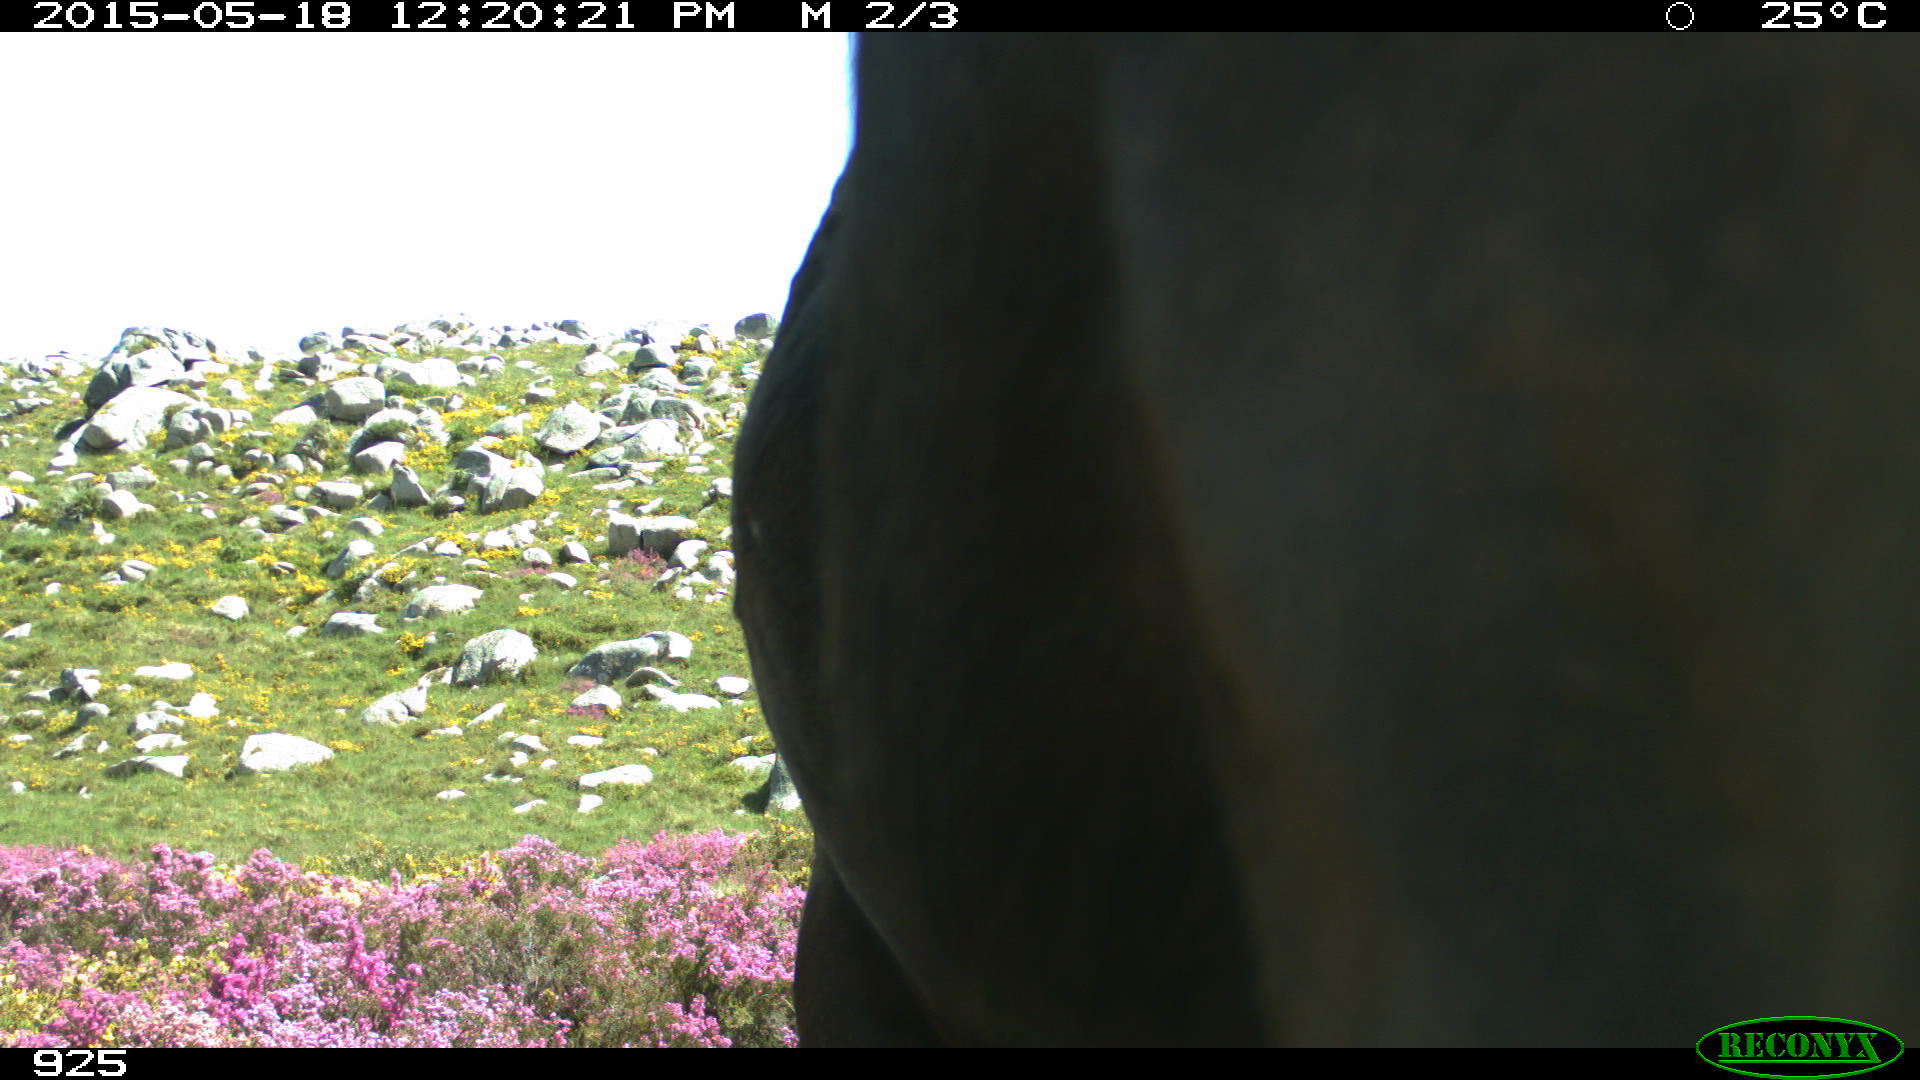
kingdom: Animalia
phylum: Chordata
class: Mammalia
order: Perissodactyla
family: Equidae
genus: Equus
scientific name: Equus caballus
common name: Horse
